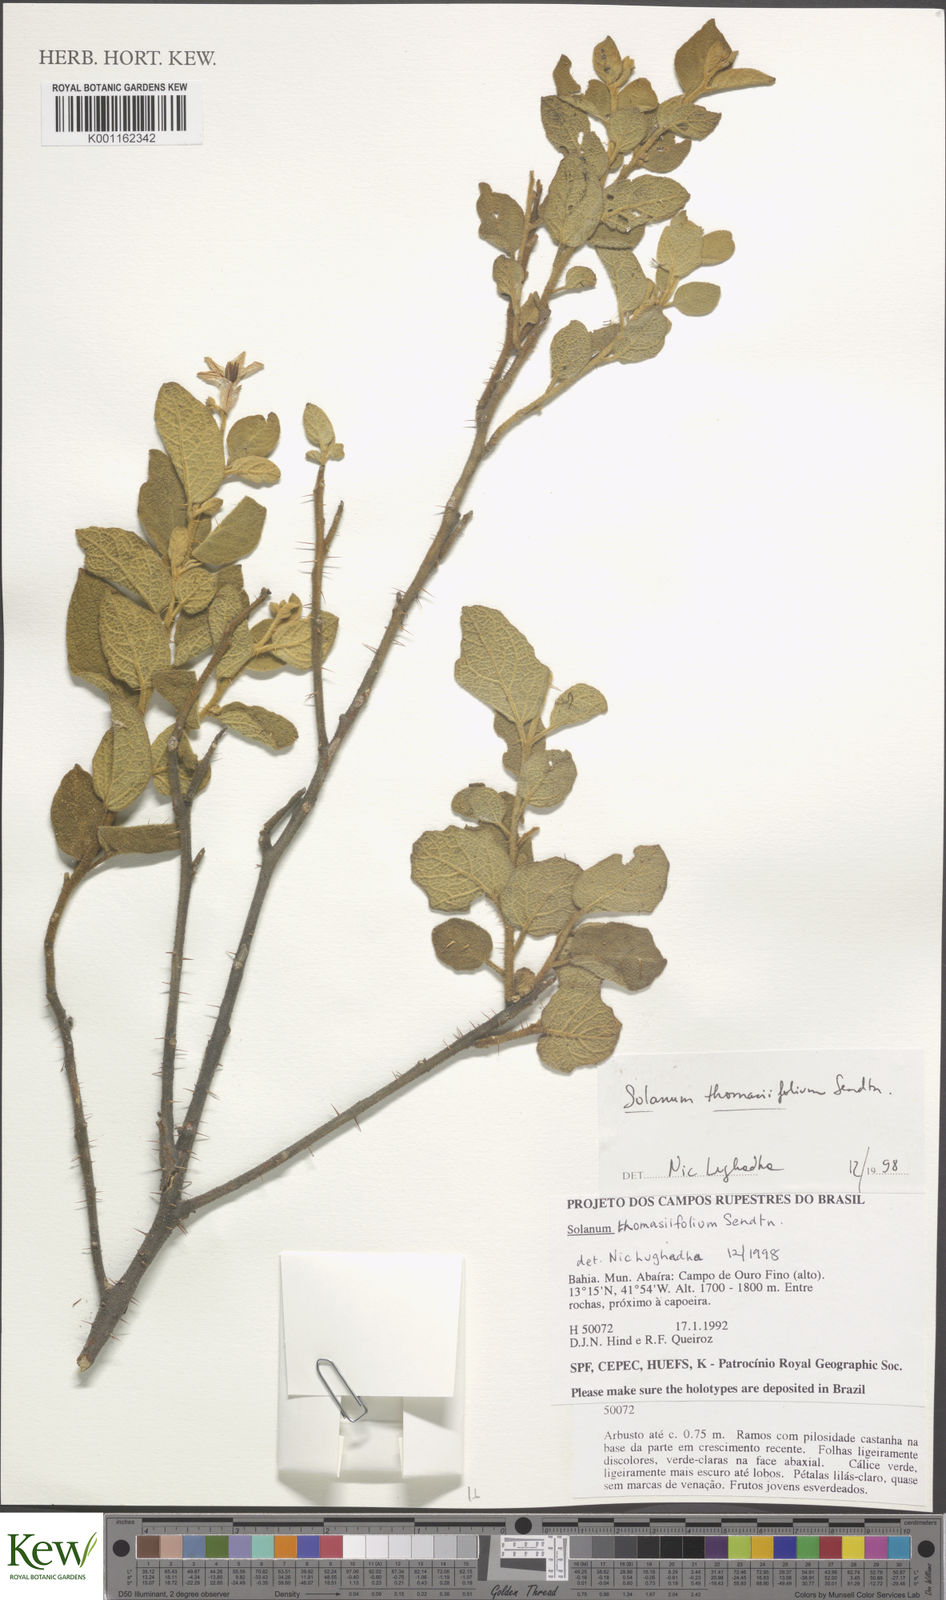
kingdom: Plantae
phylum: Tracheophyta
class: Magnoliopsida
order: Solanales
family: Solanaceae
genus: Solanum
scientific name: Solanum thomasiifolium
